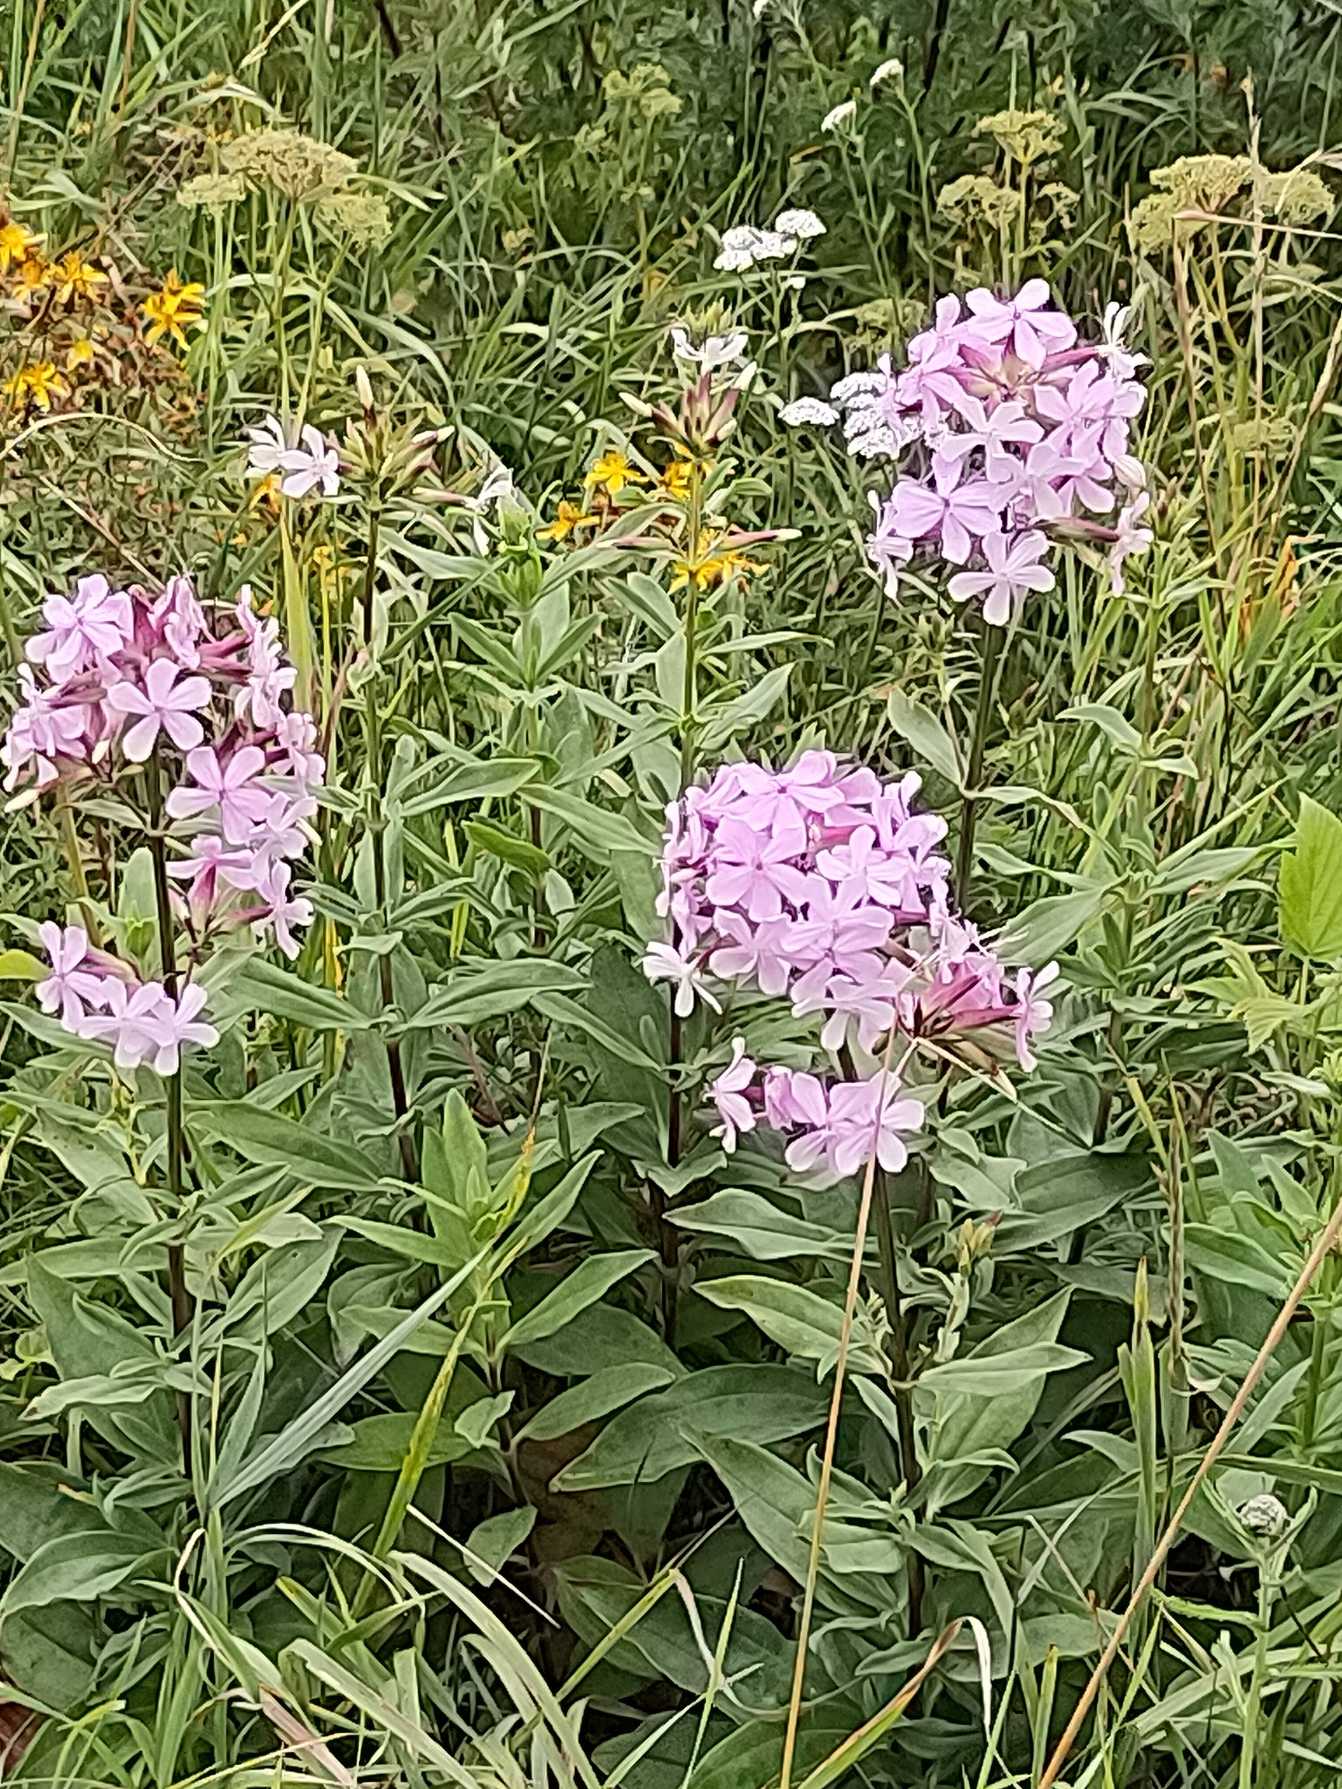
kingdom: Plantae
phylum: Tracheophyta
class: Magnoliopsida
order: Caryophyllales
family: Caryophyllaceae
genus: Saponaria
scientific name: Saponaria officinalis
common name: Sæbeurt
